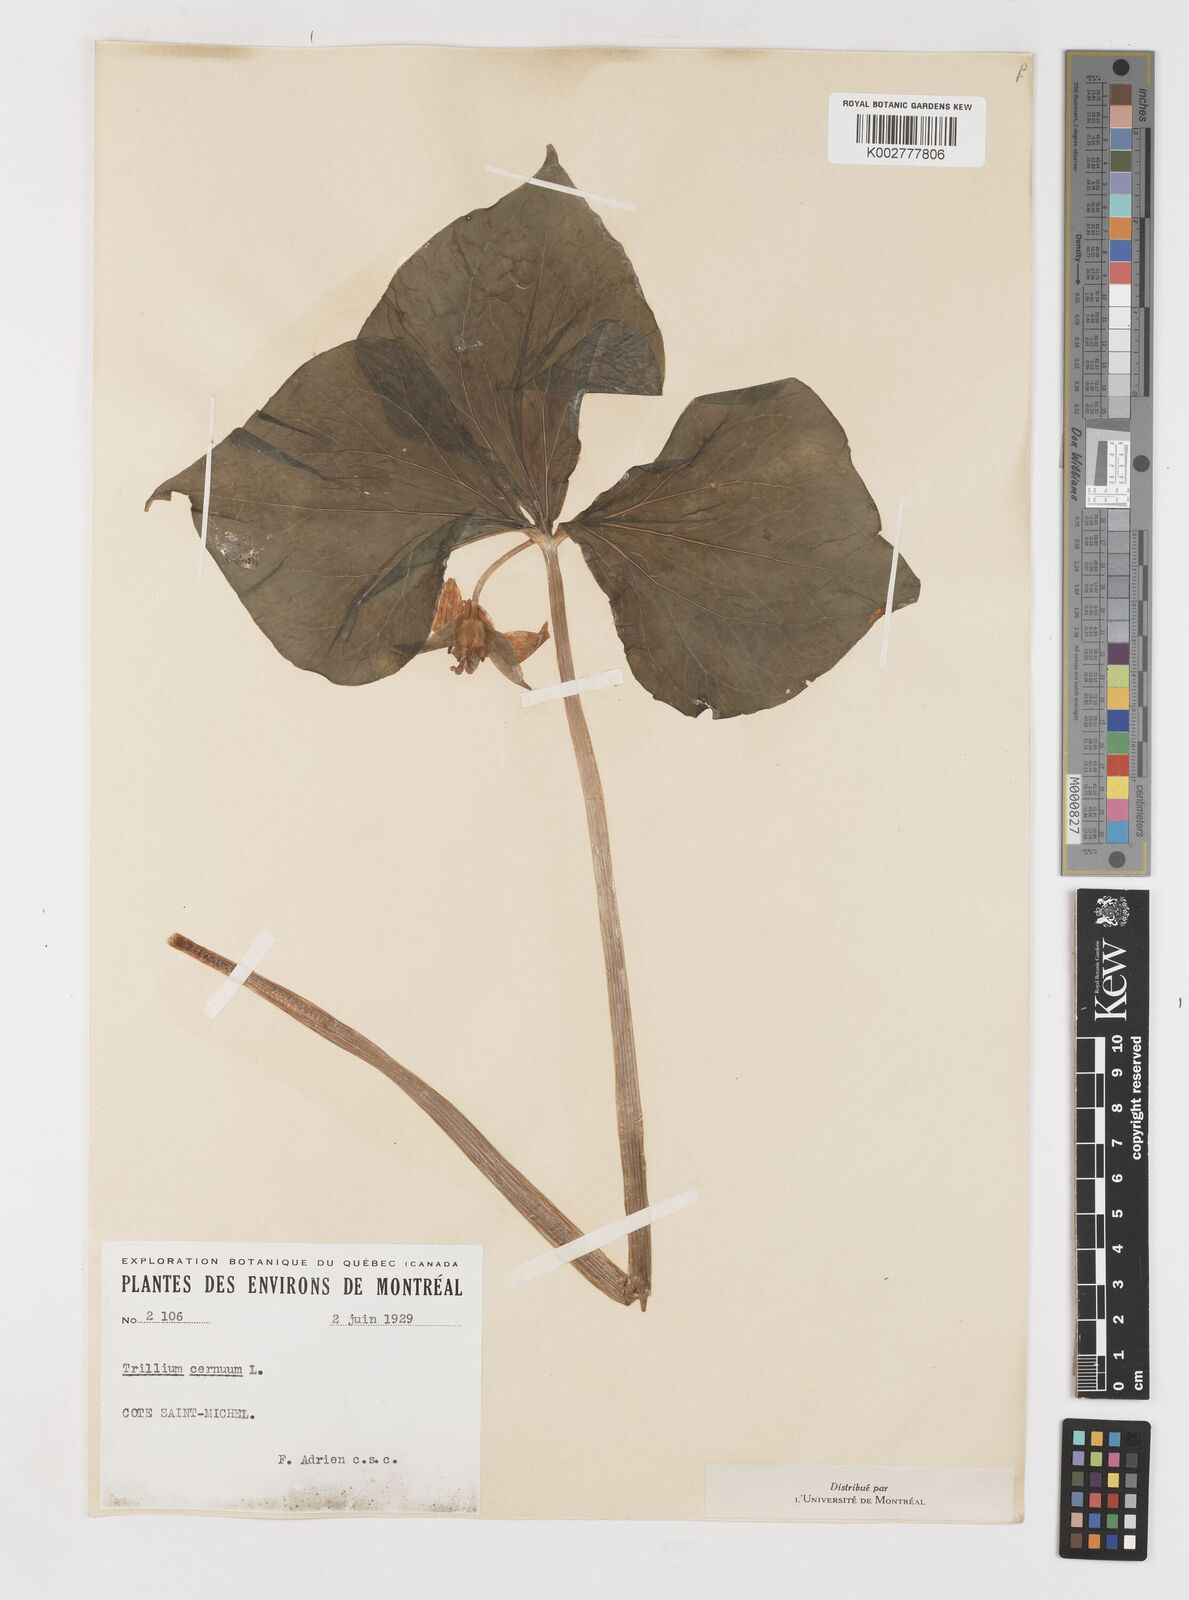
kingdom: Plantae
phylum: Tracheophyta
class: Liliopsida
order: Liliales
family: Melanthiaceae
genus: Trillium
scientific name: Trillium cernuum
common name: Nodding trillium
